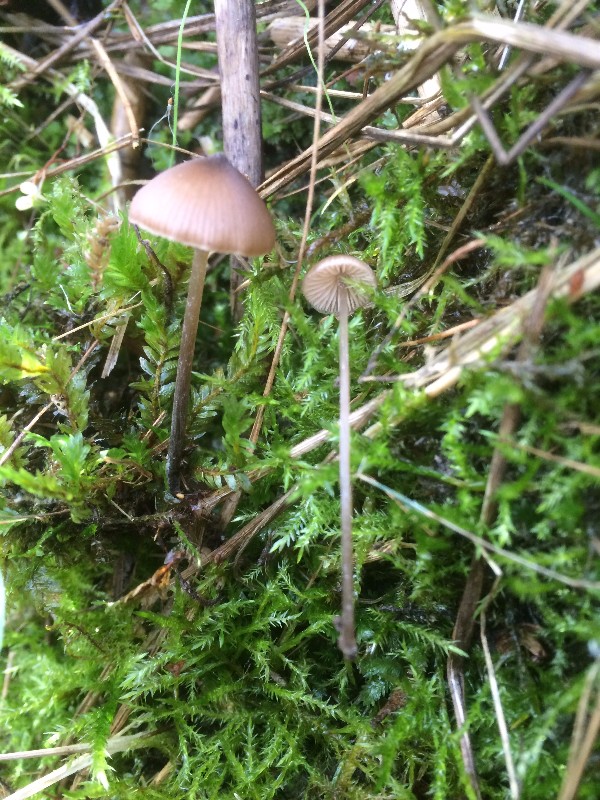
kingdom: Fungi
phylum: Basidiomycota
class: Agaricomycetes
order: Agaricales
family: Entolomataceae
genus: Entoloma
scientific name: Entoloma hebes
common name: krat-rødblad
